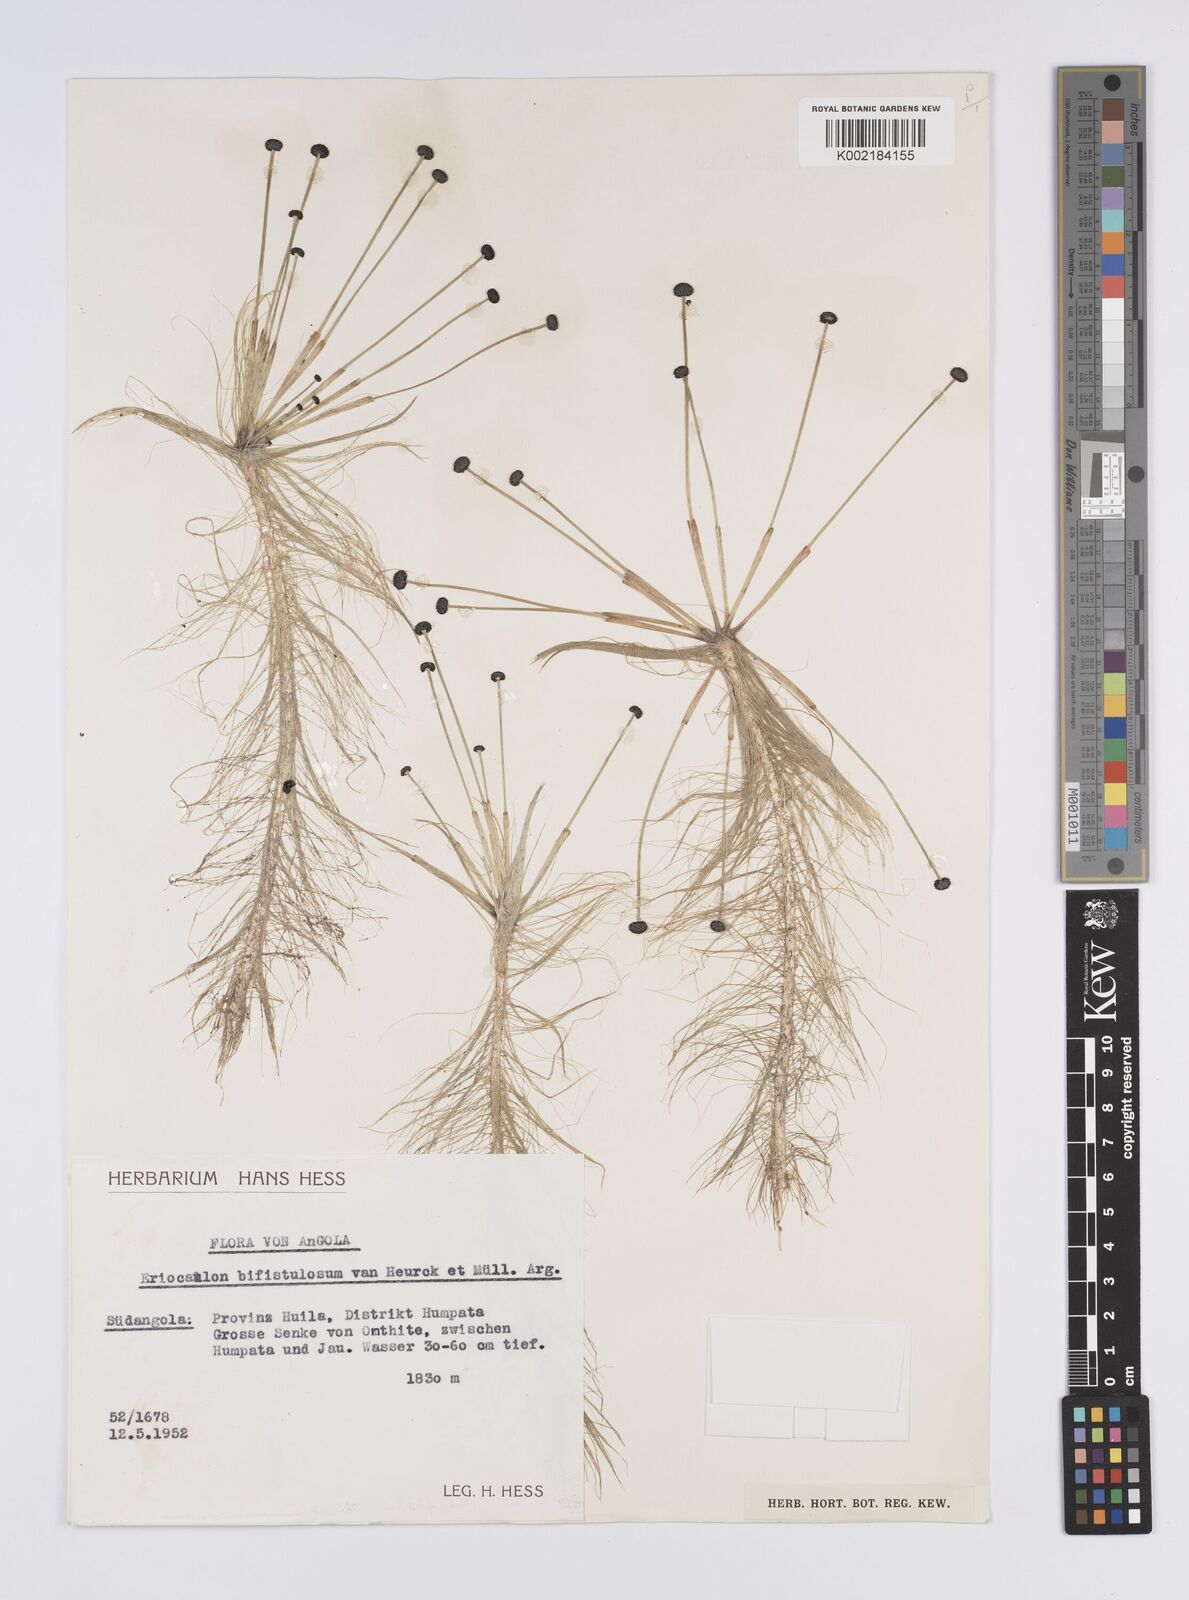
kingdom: Plantae
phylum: Tracheophyta
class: Liliopsida
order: Poales
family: Eriocaulaceae
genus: Eriocaulon
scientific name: Eriocaulon setaceum
